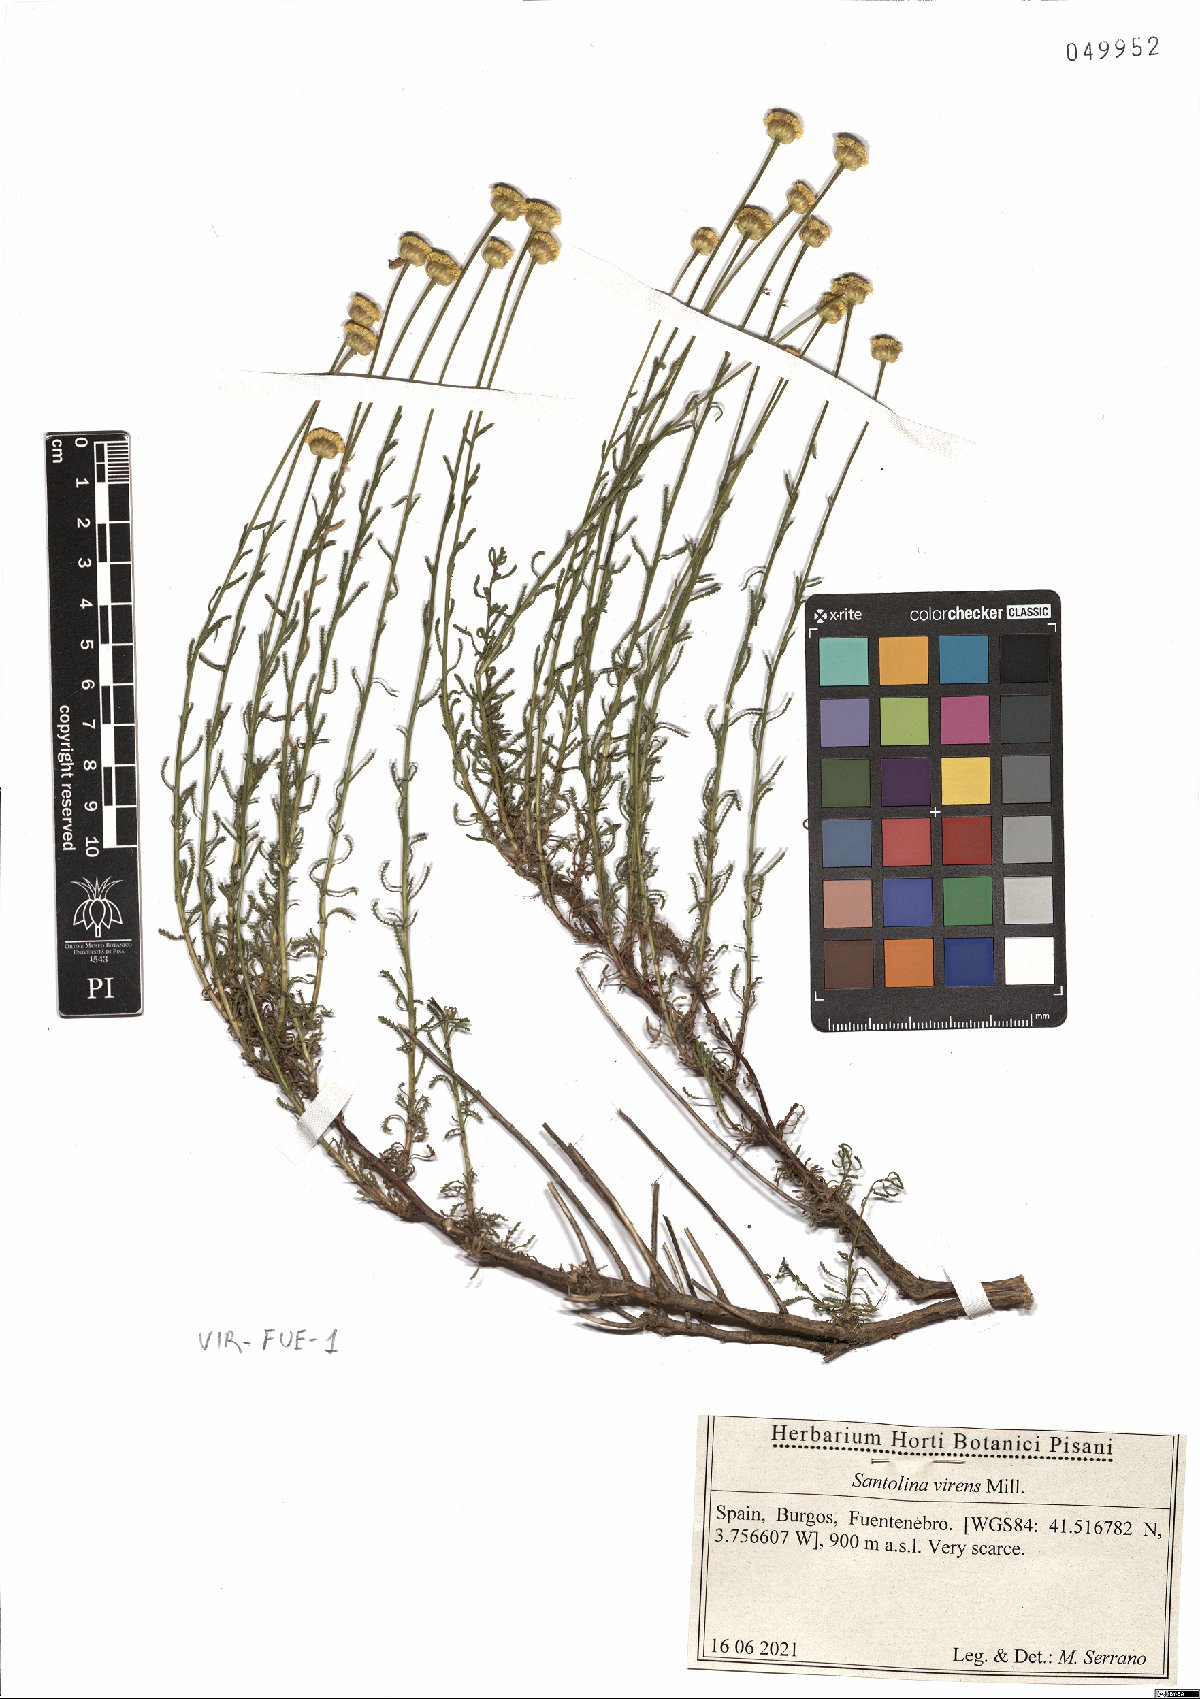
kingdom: Plantae
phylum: Tracheophyta
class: Magnoliopsida
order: Asterales
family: Asteraceae
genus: Santolina
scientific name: Santolina virens
